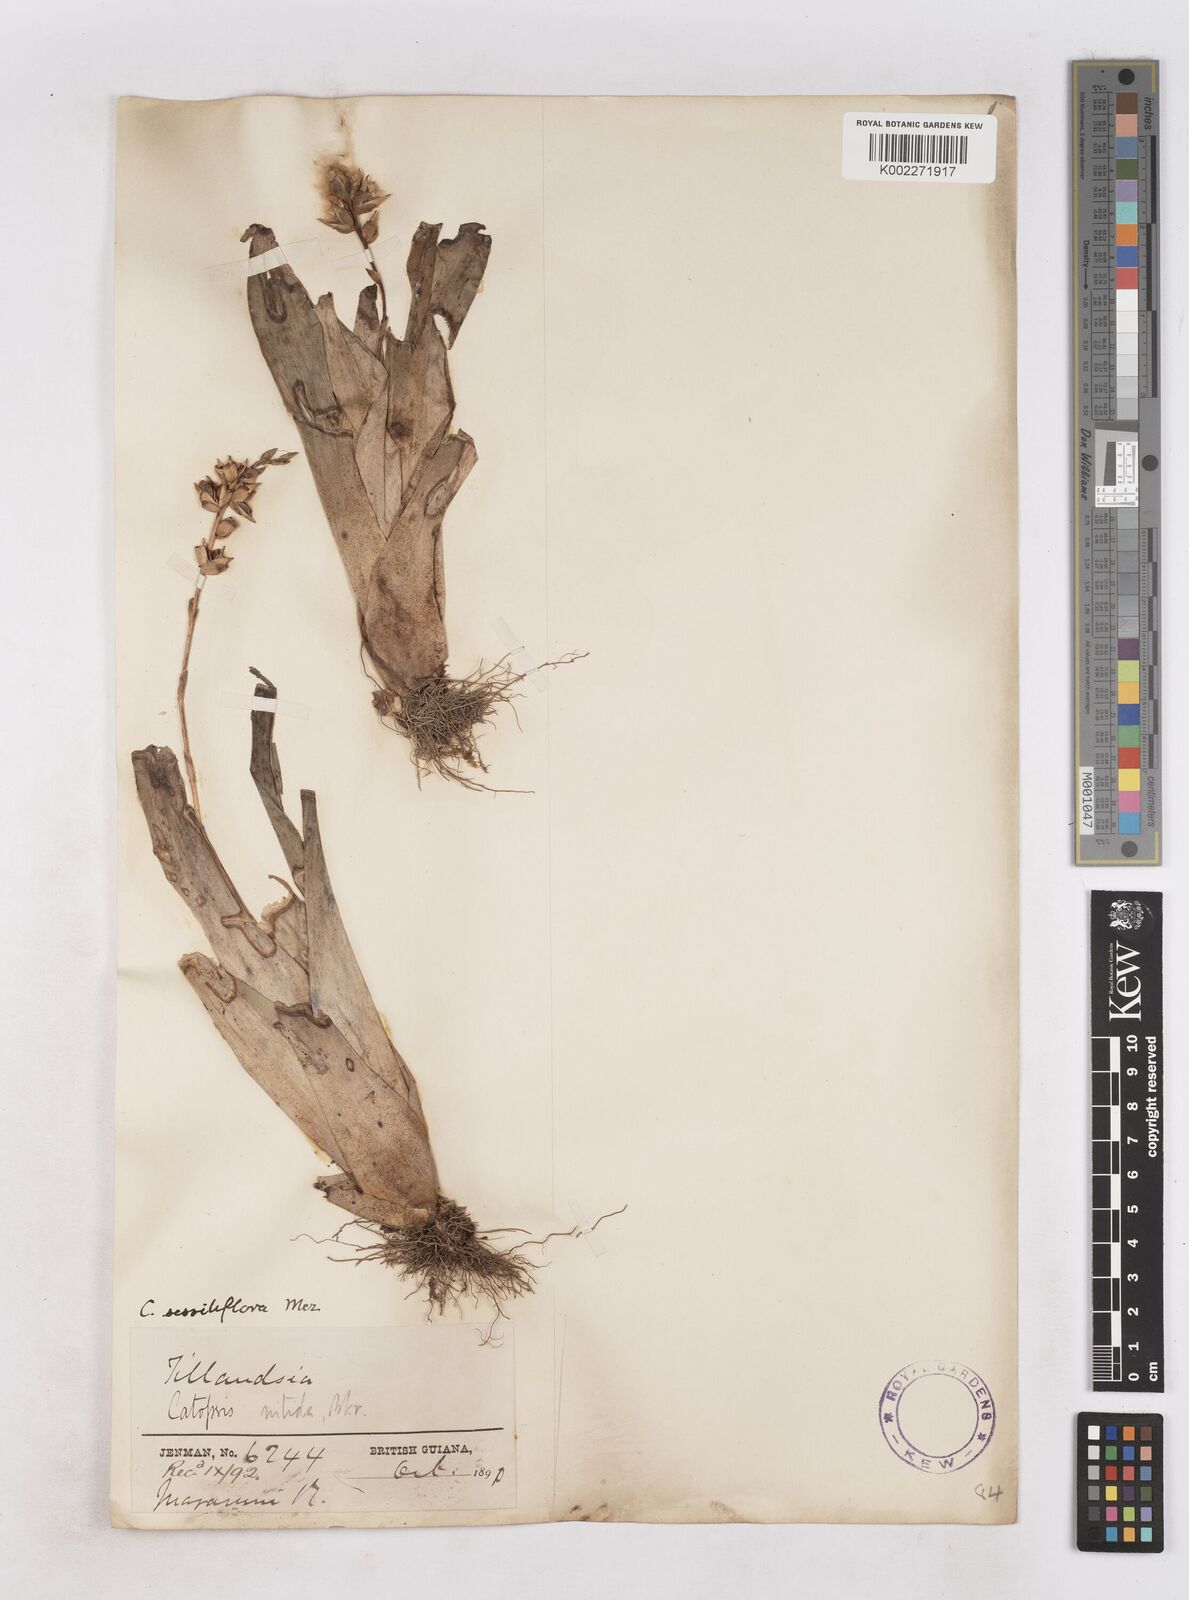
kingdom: Plantae
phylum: Tracheophyta
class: Liliopsida
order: Poales
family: Bromeliaceae
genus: Catopsis
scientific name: Catopsis sessiliflora
